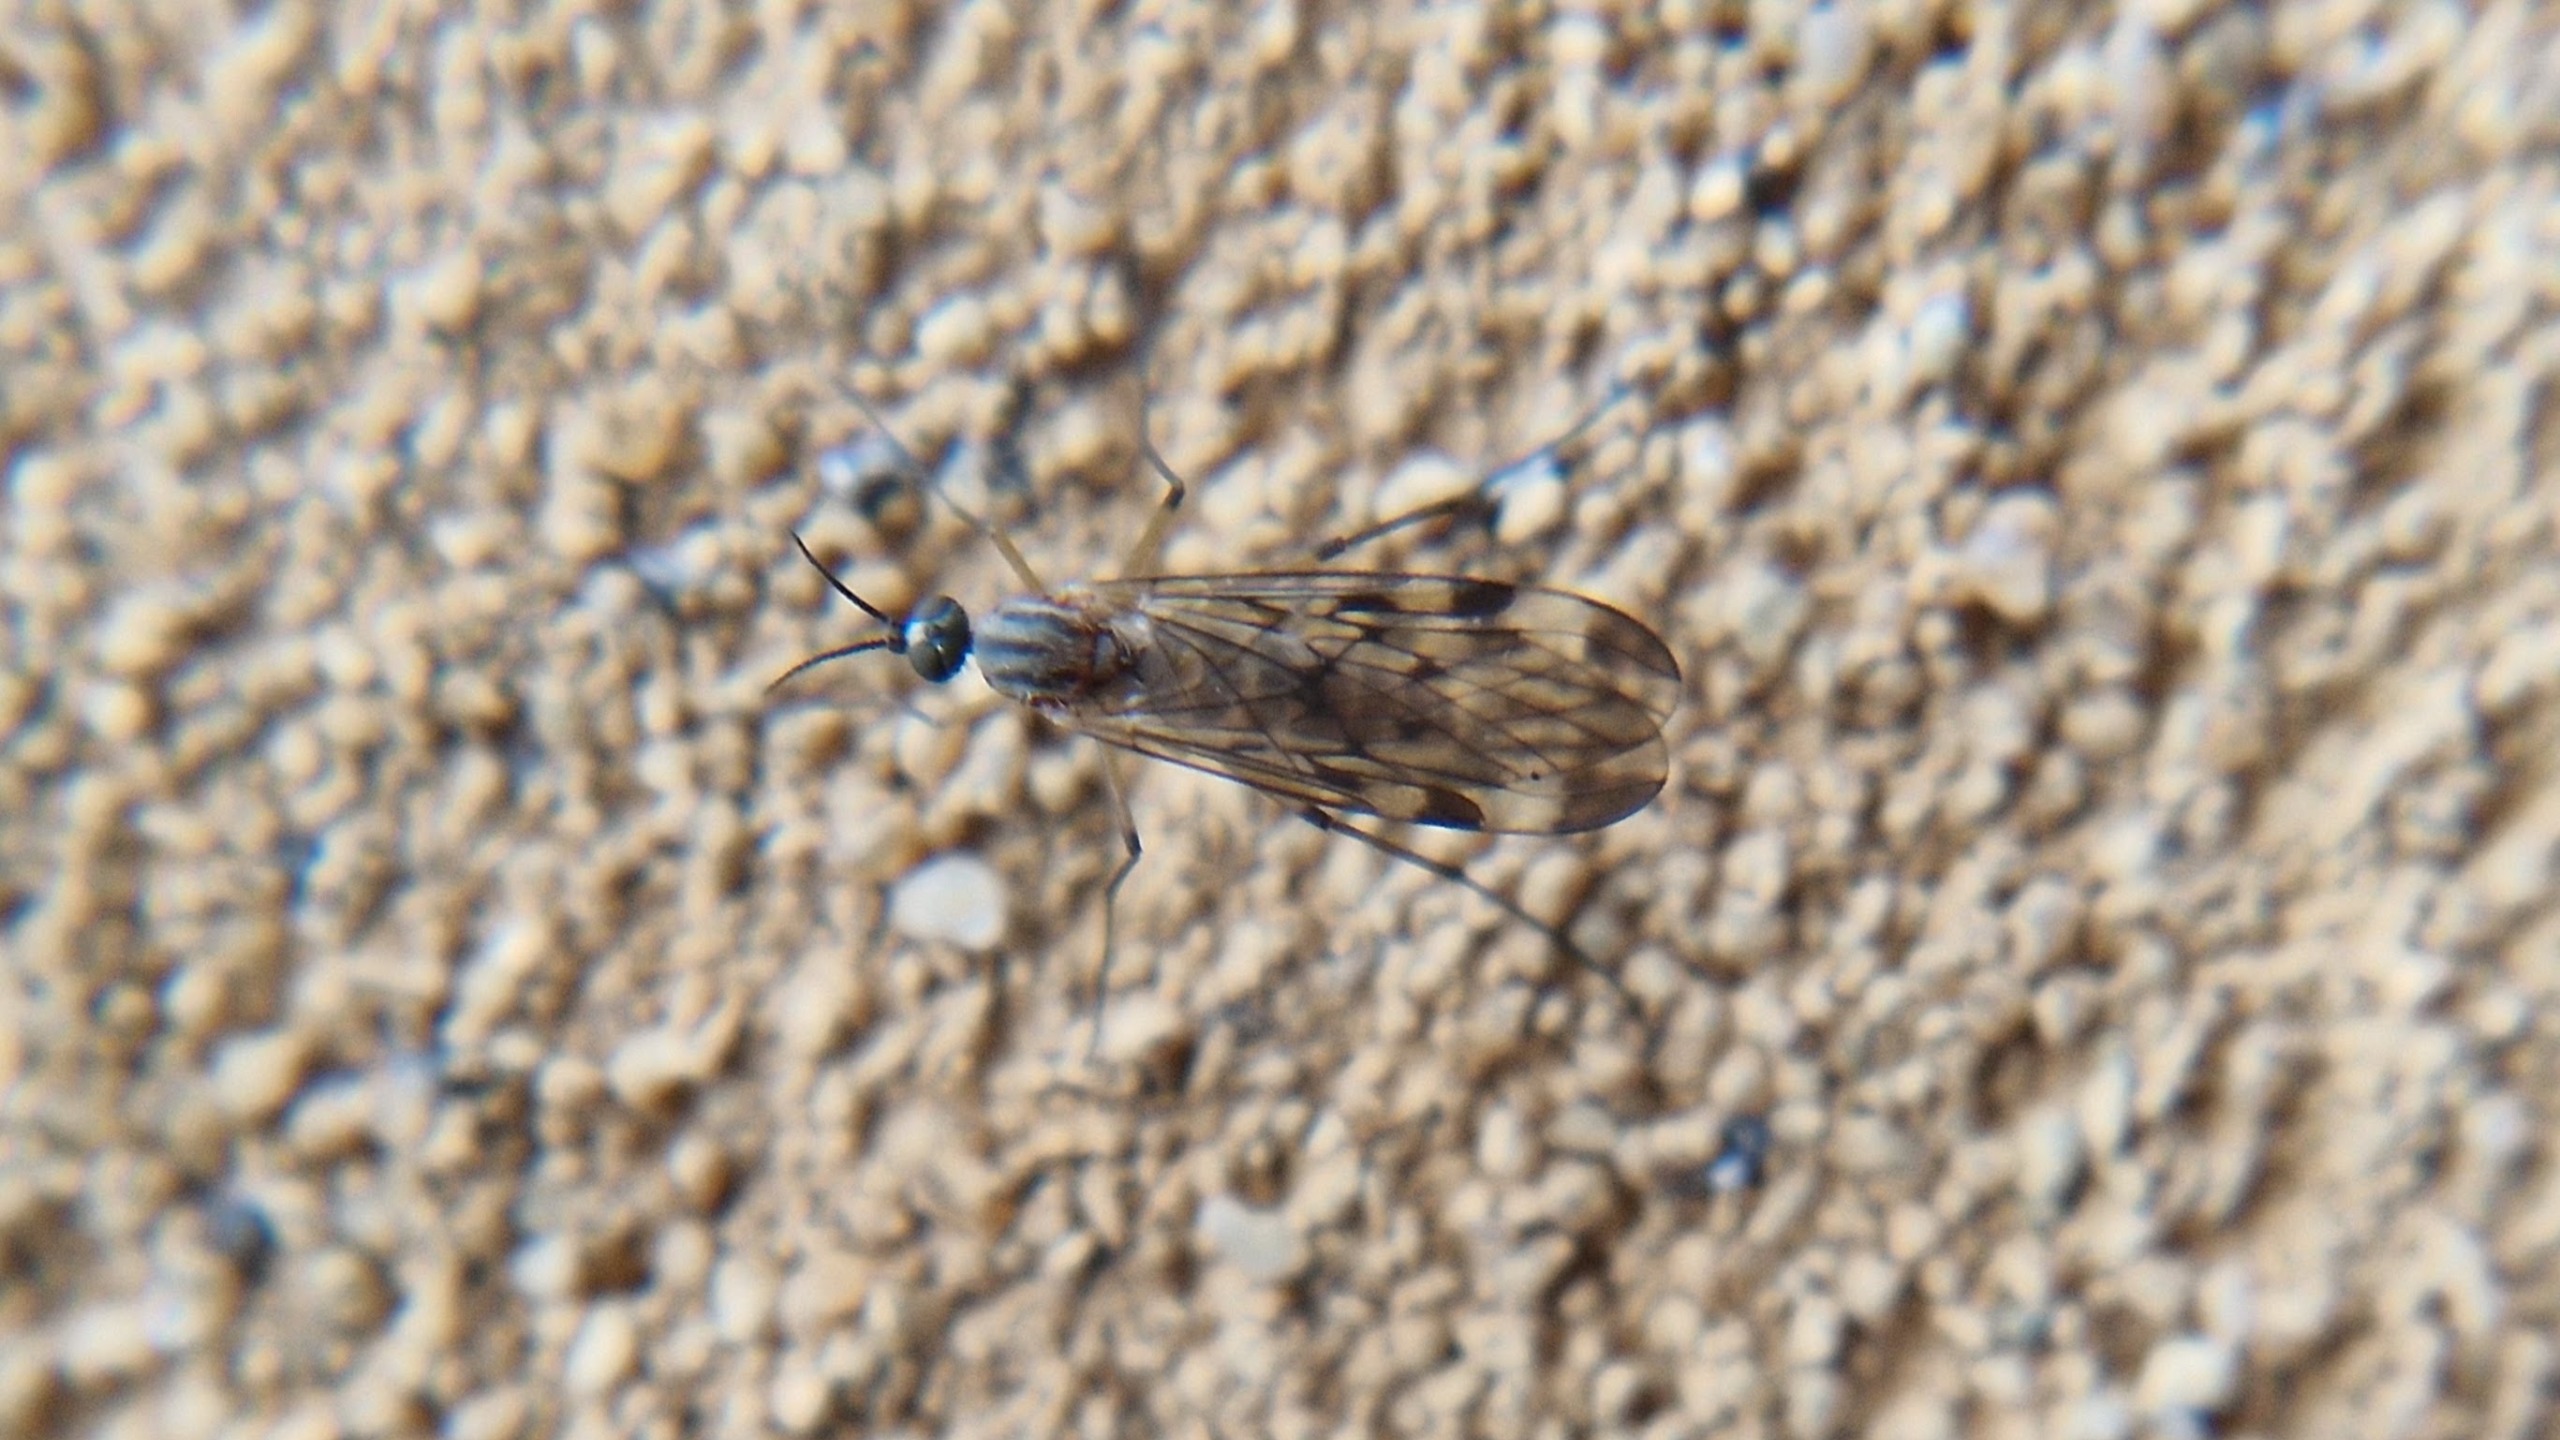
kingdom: Animalia
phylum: Arthropoda
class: Insecta
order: Diptera
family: Anisopodidae
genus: Sylvicola
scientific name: Sylvicola
